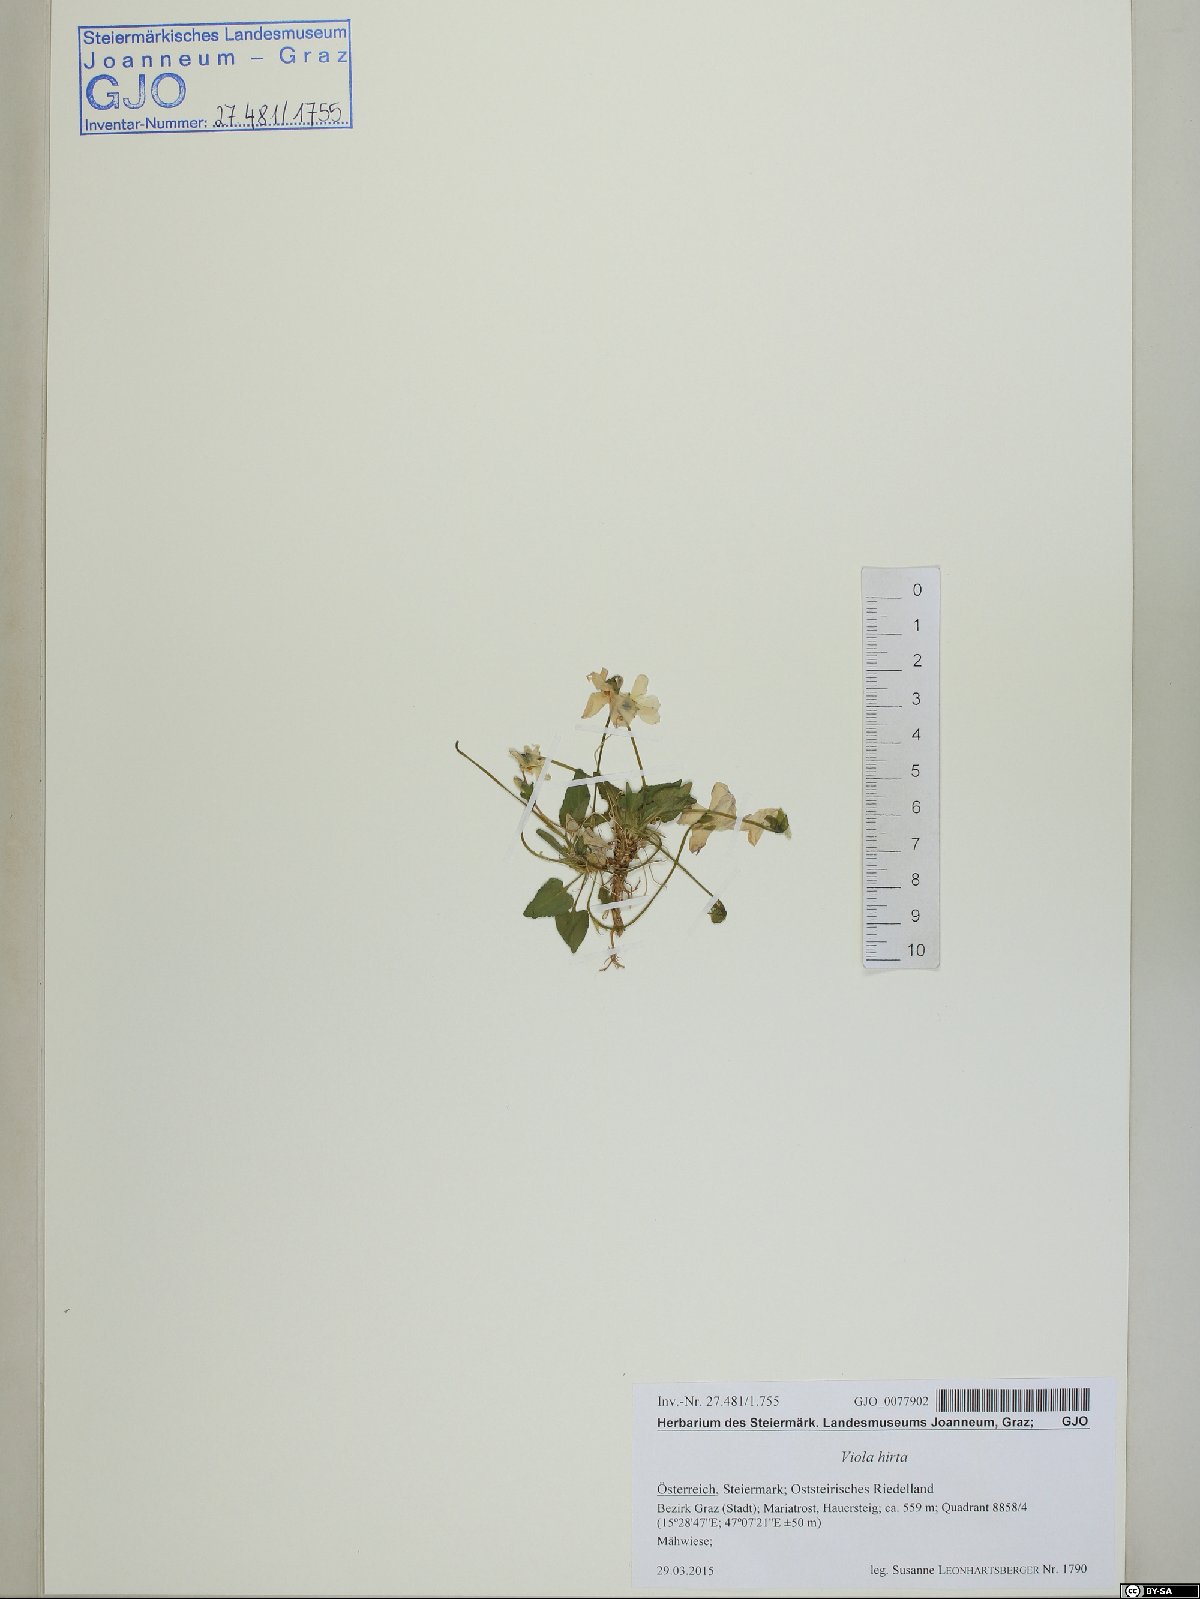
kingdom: Plantae
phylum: Tracheophyta
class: Magnoliopsida
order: Malpighiales
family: Violaceae
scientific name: Violaceae
